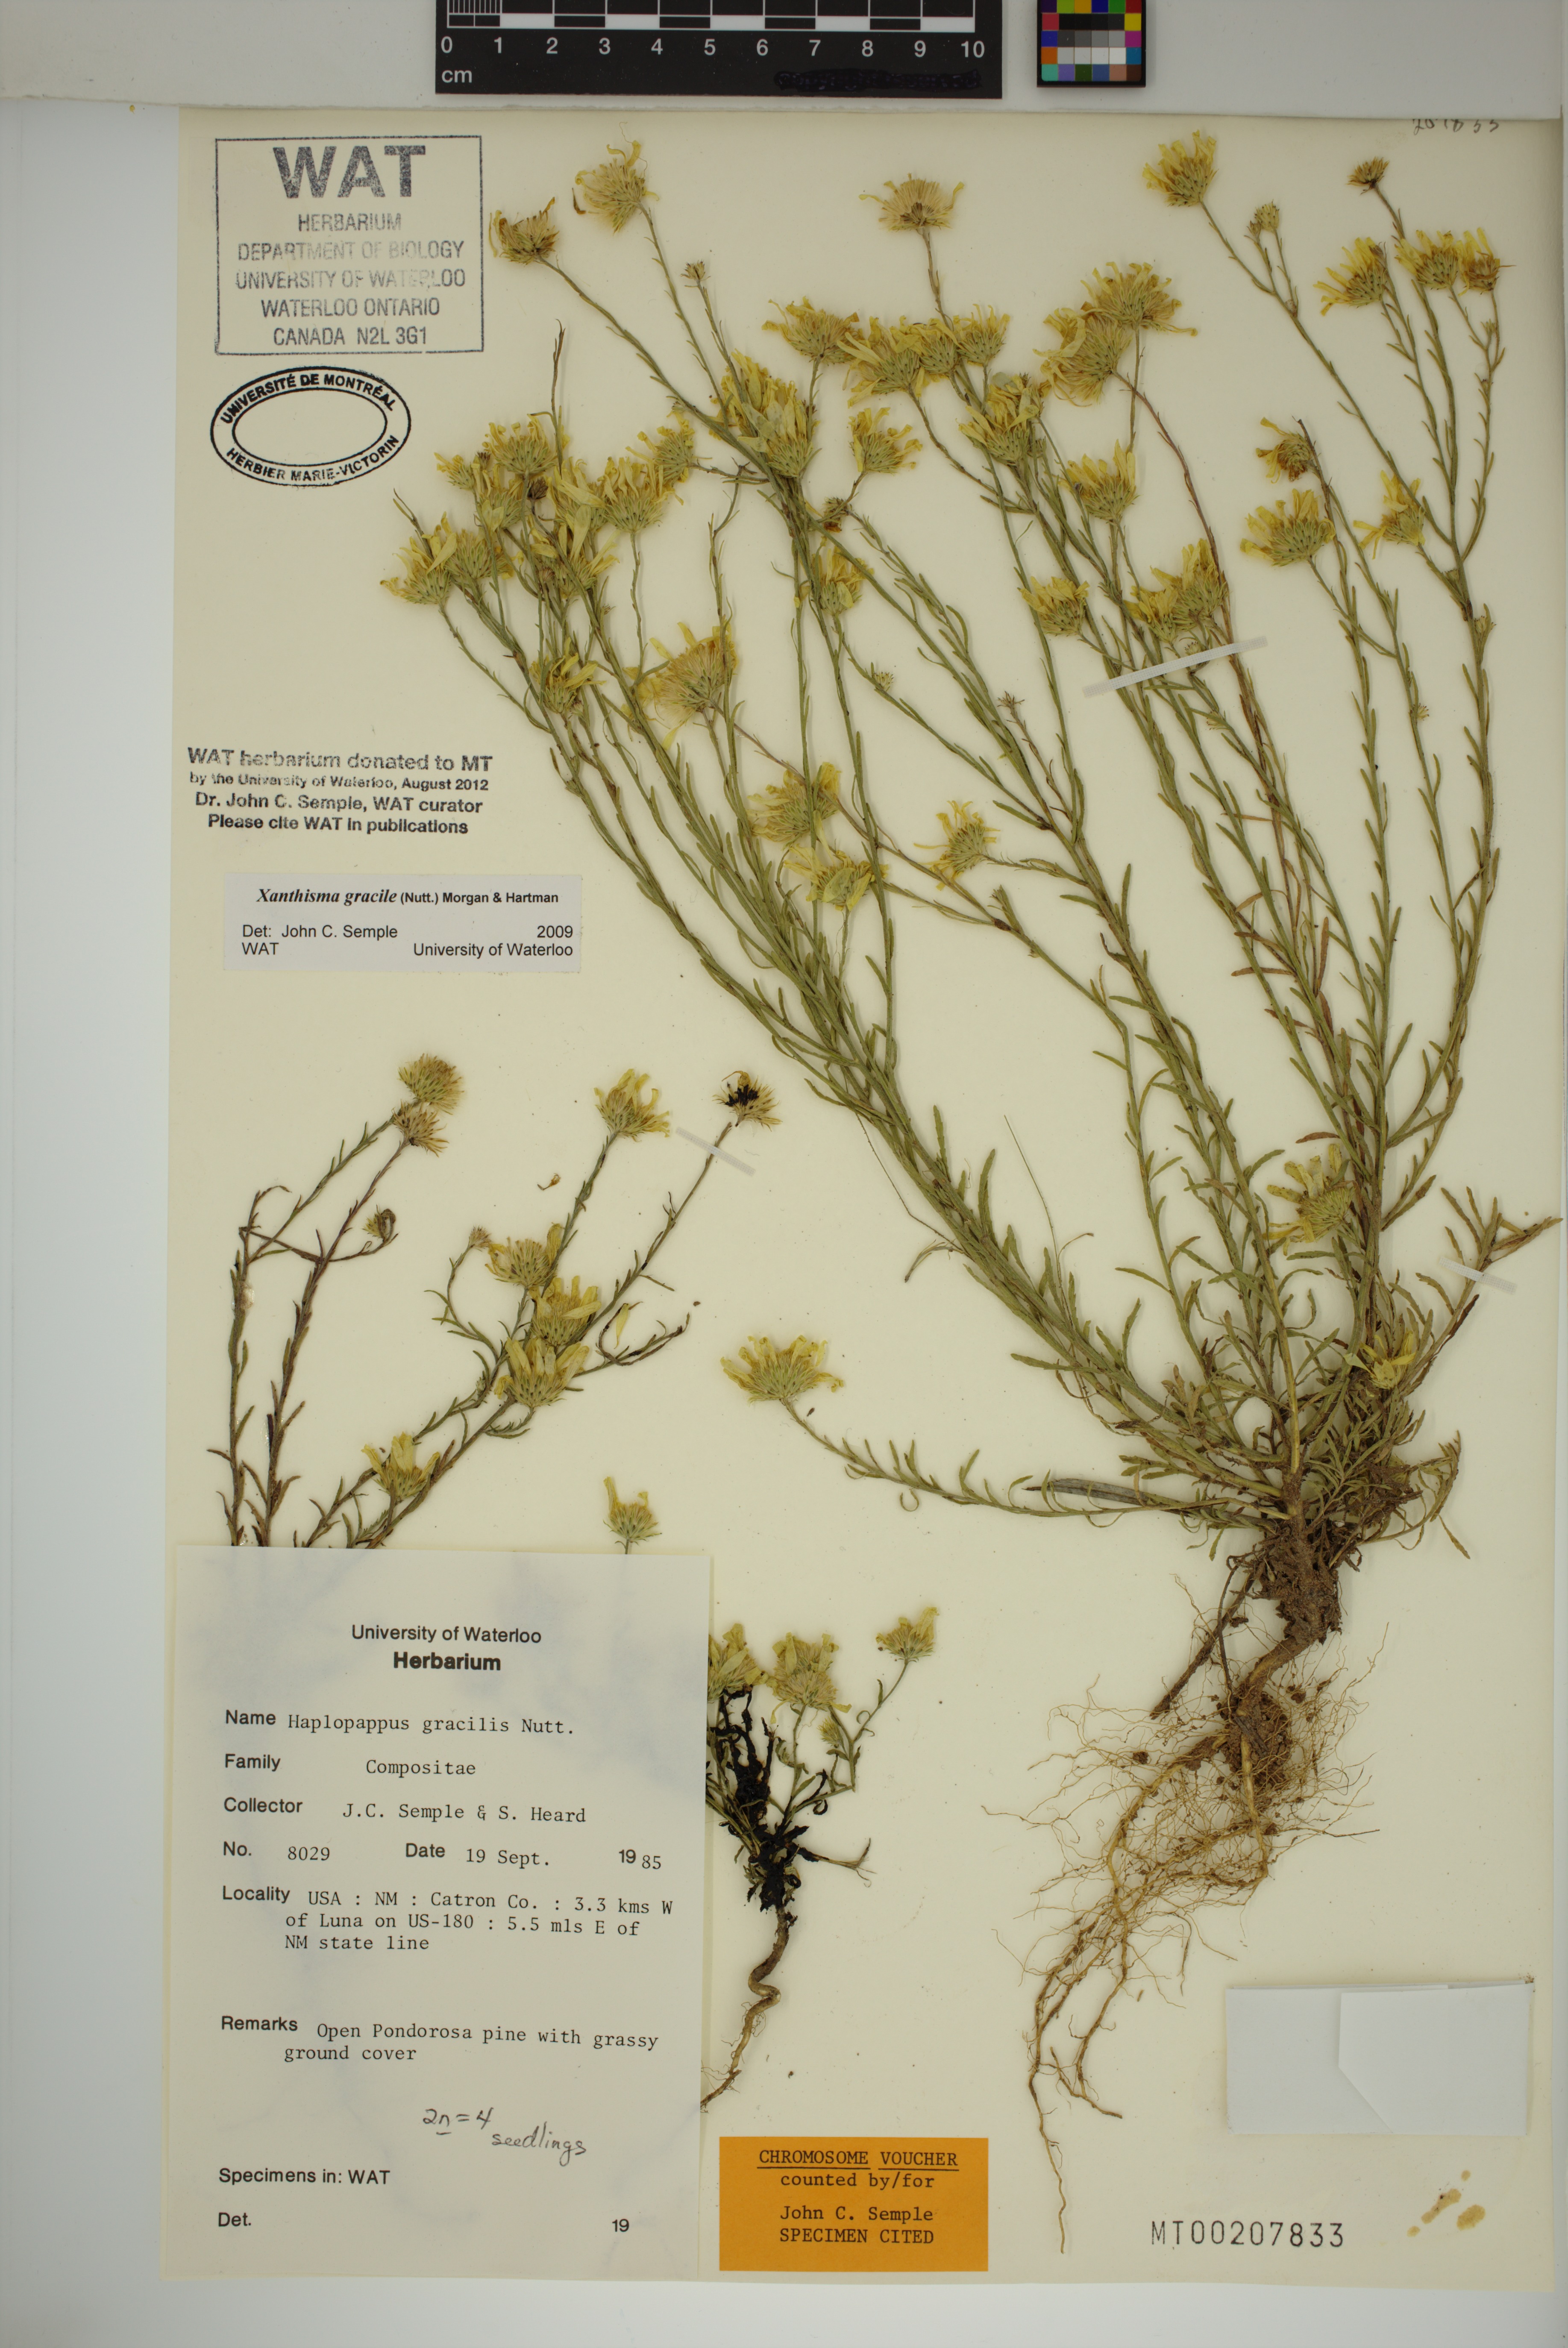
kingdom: Plantae
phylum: Tracheophyta
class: Magnoliopsida
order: Asterales
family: Asteraceae
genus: Xanthisma
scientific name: Xanthisma gracile
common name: Slender goldenweed
